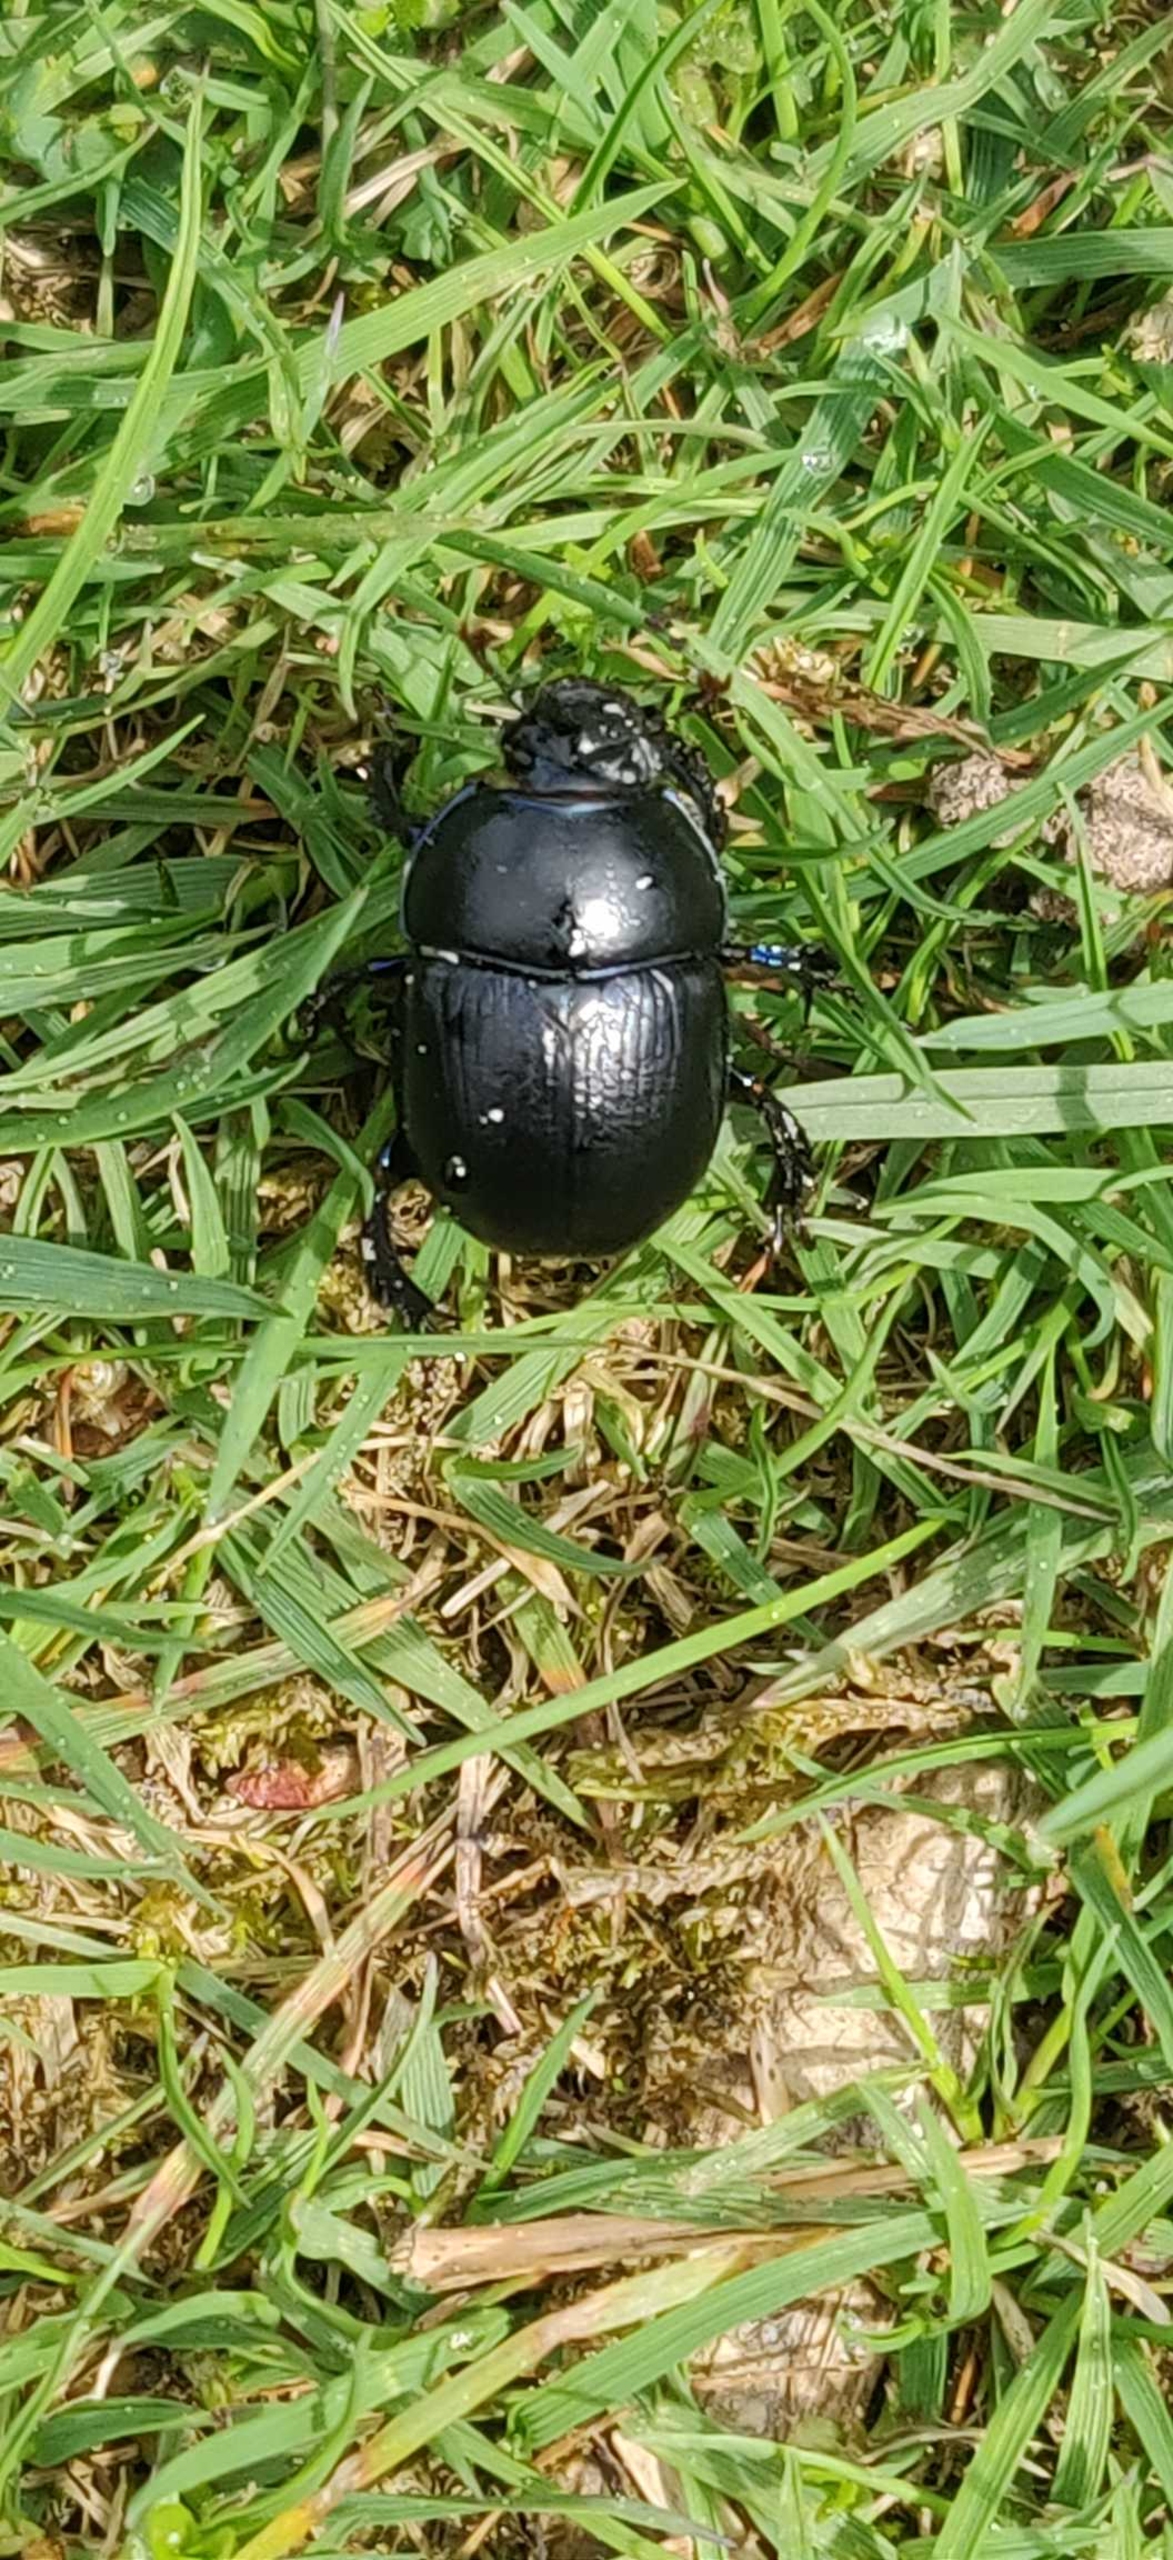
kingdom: Animalia
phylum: Arthropoda
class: Insecta
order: Coleoptera
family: Geotrupidae
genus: Anoplotrupes
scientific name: Anoplotrupes stercorosus
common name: Skovskarnbasse
